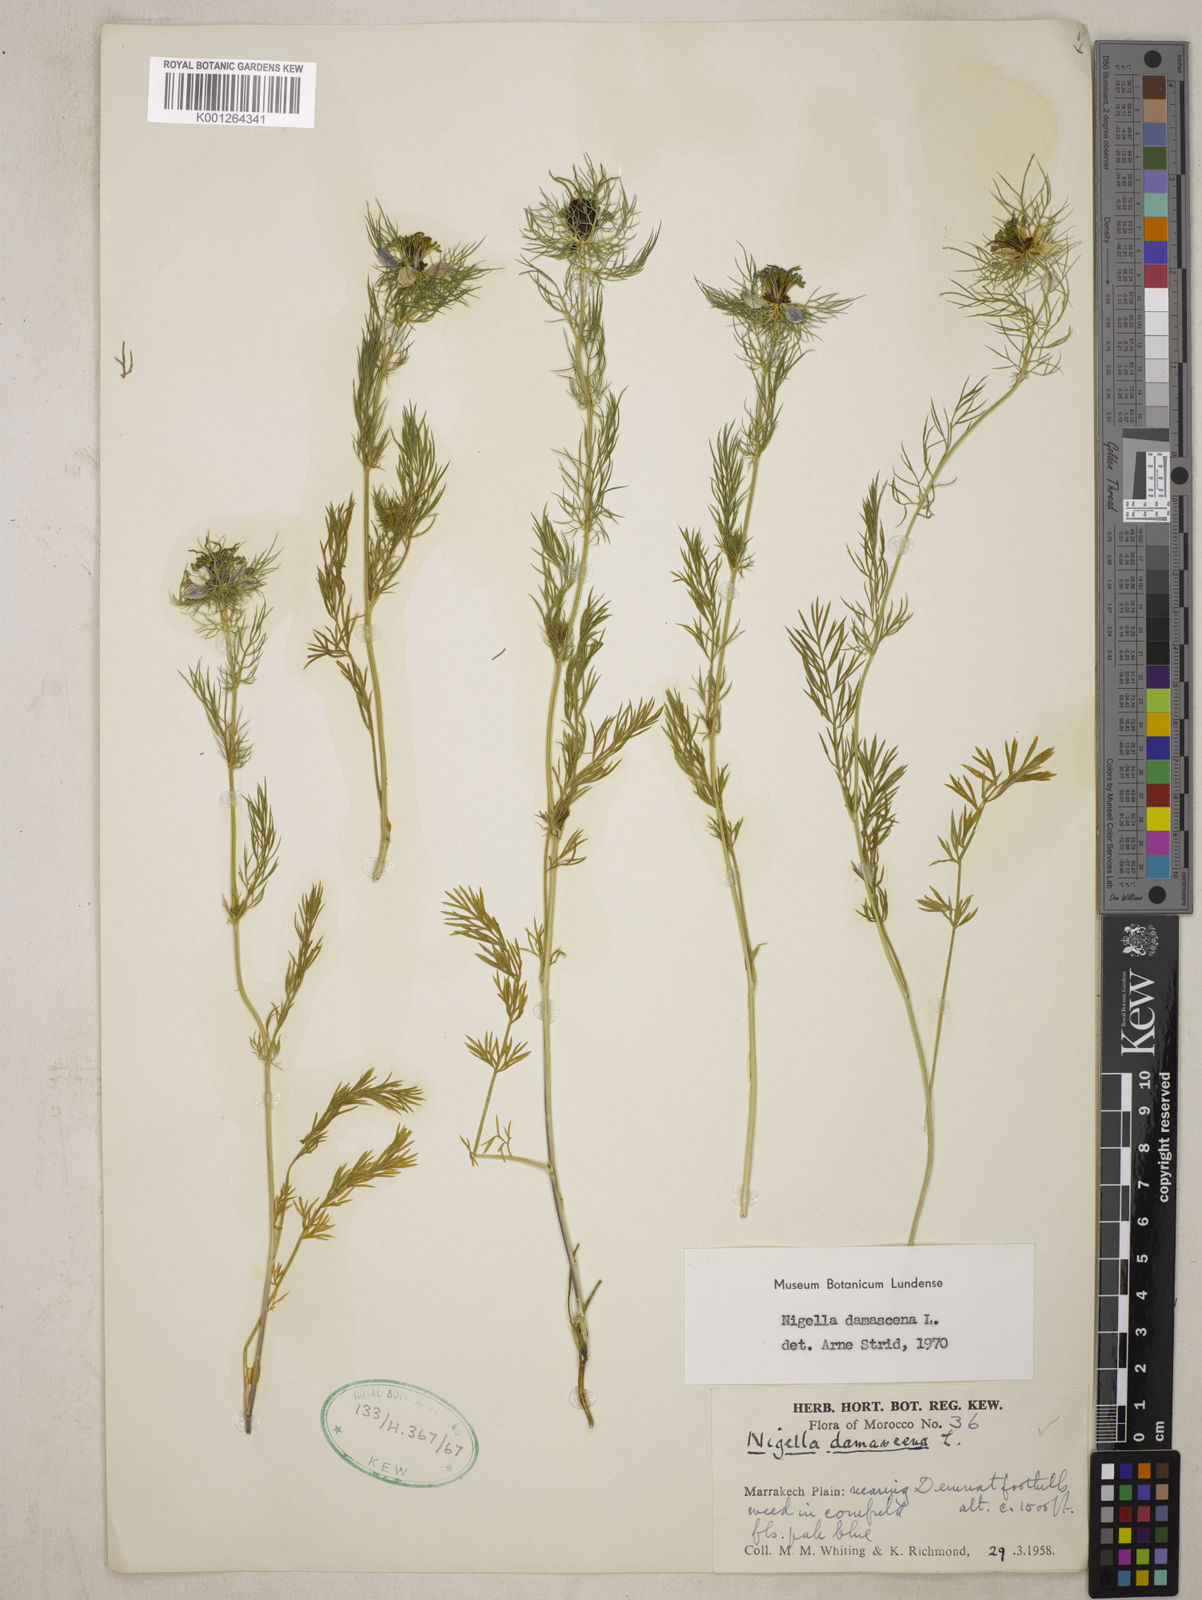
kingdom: Plantae
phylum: Tracheophyta
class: Magnoliopsida
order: Ranunculales
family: Ranunculaceae
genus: Nigella
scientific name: Nigella damascena
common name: Love-in-a-mist
